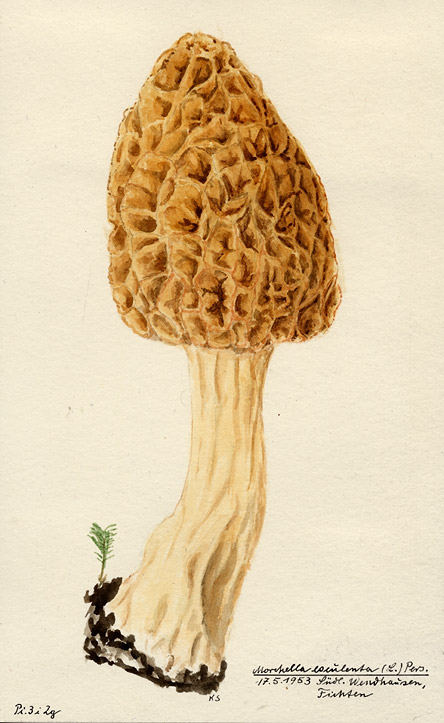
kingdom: Fungi
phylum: Ascomycota
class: Pezizomycetes
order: Pezizales
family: Morchellaceae
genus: Morchella
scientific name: Morchella esculenta
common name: Morel
